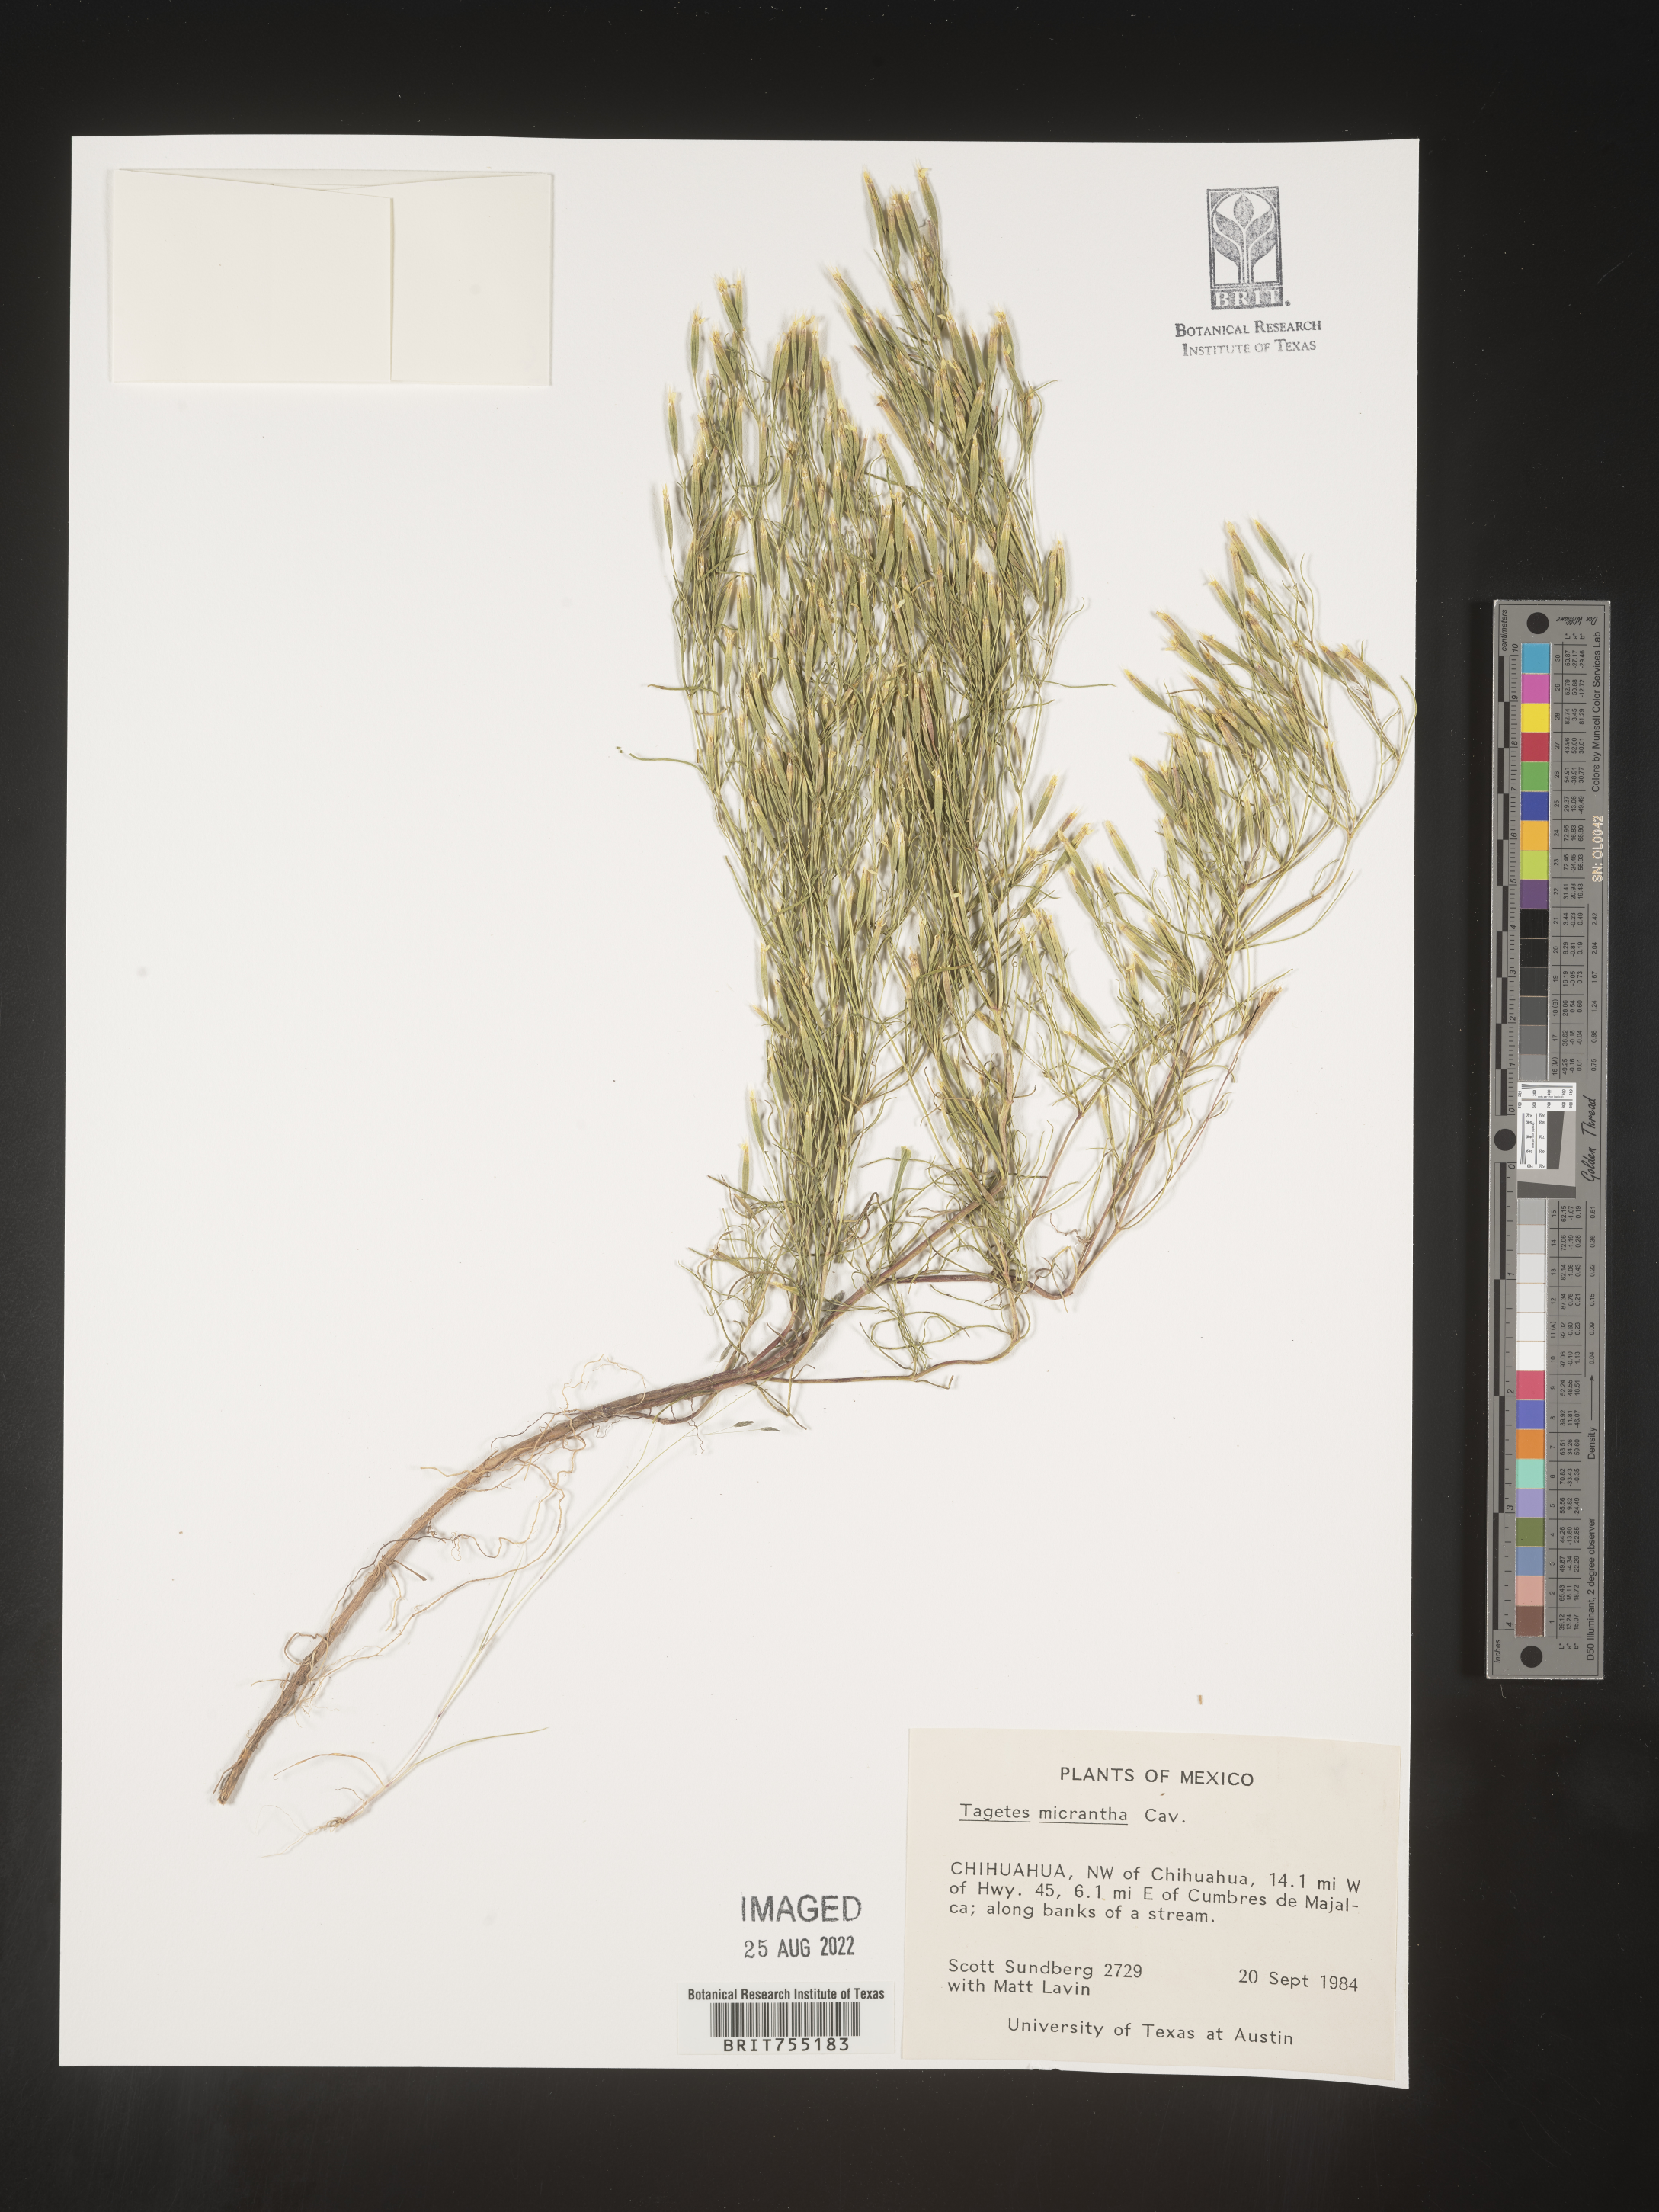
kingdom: Plantae
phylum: Tracheophyta
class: Magnoliopsida
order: Asterales
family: Asteraceae
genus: Tagetes
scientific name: Tagetes
